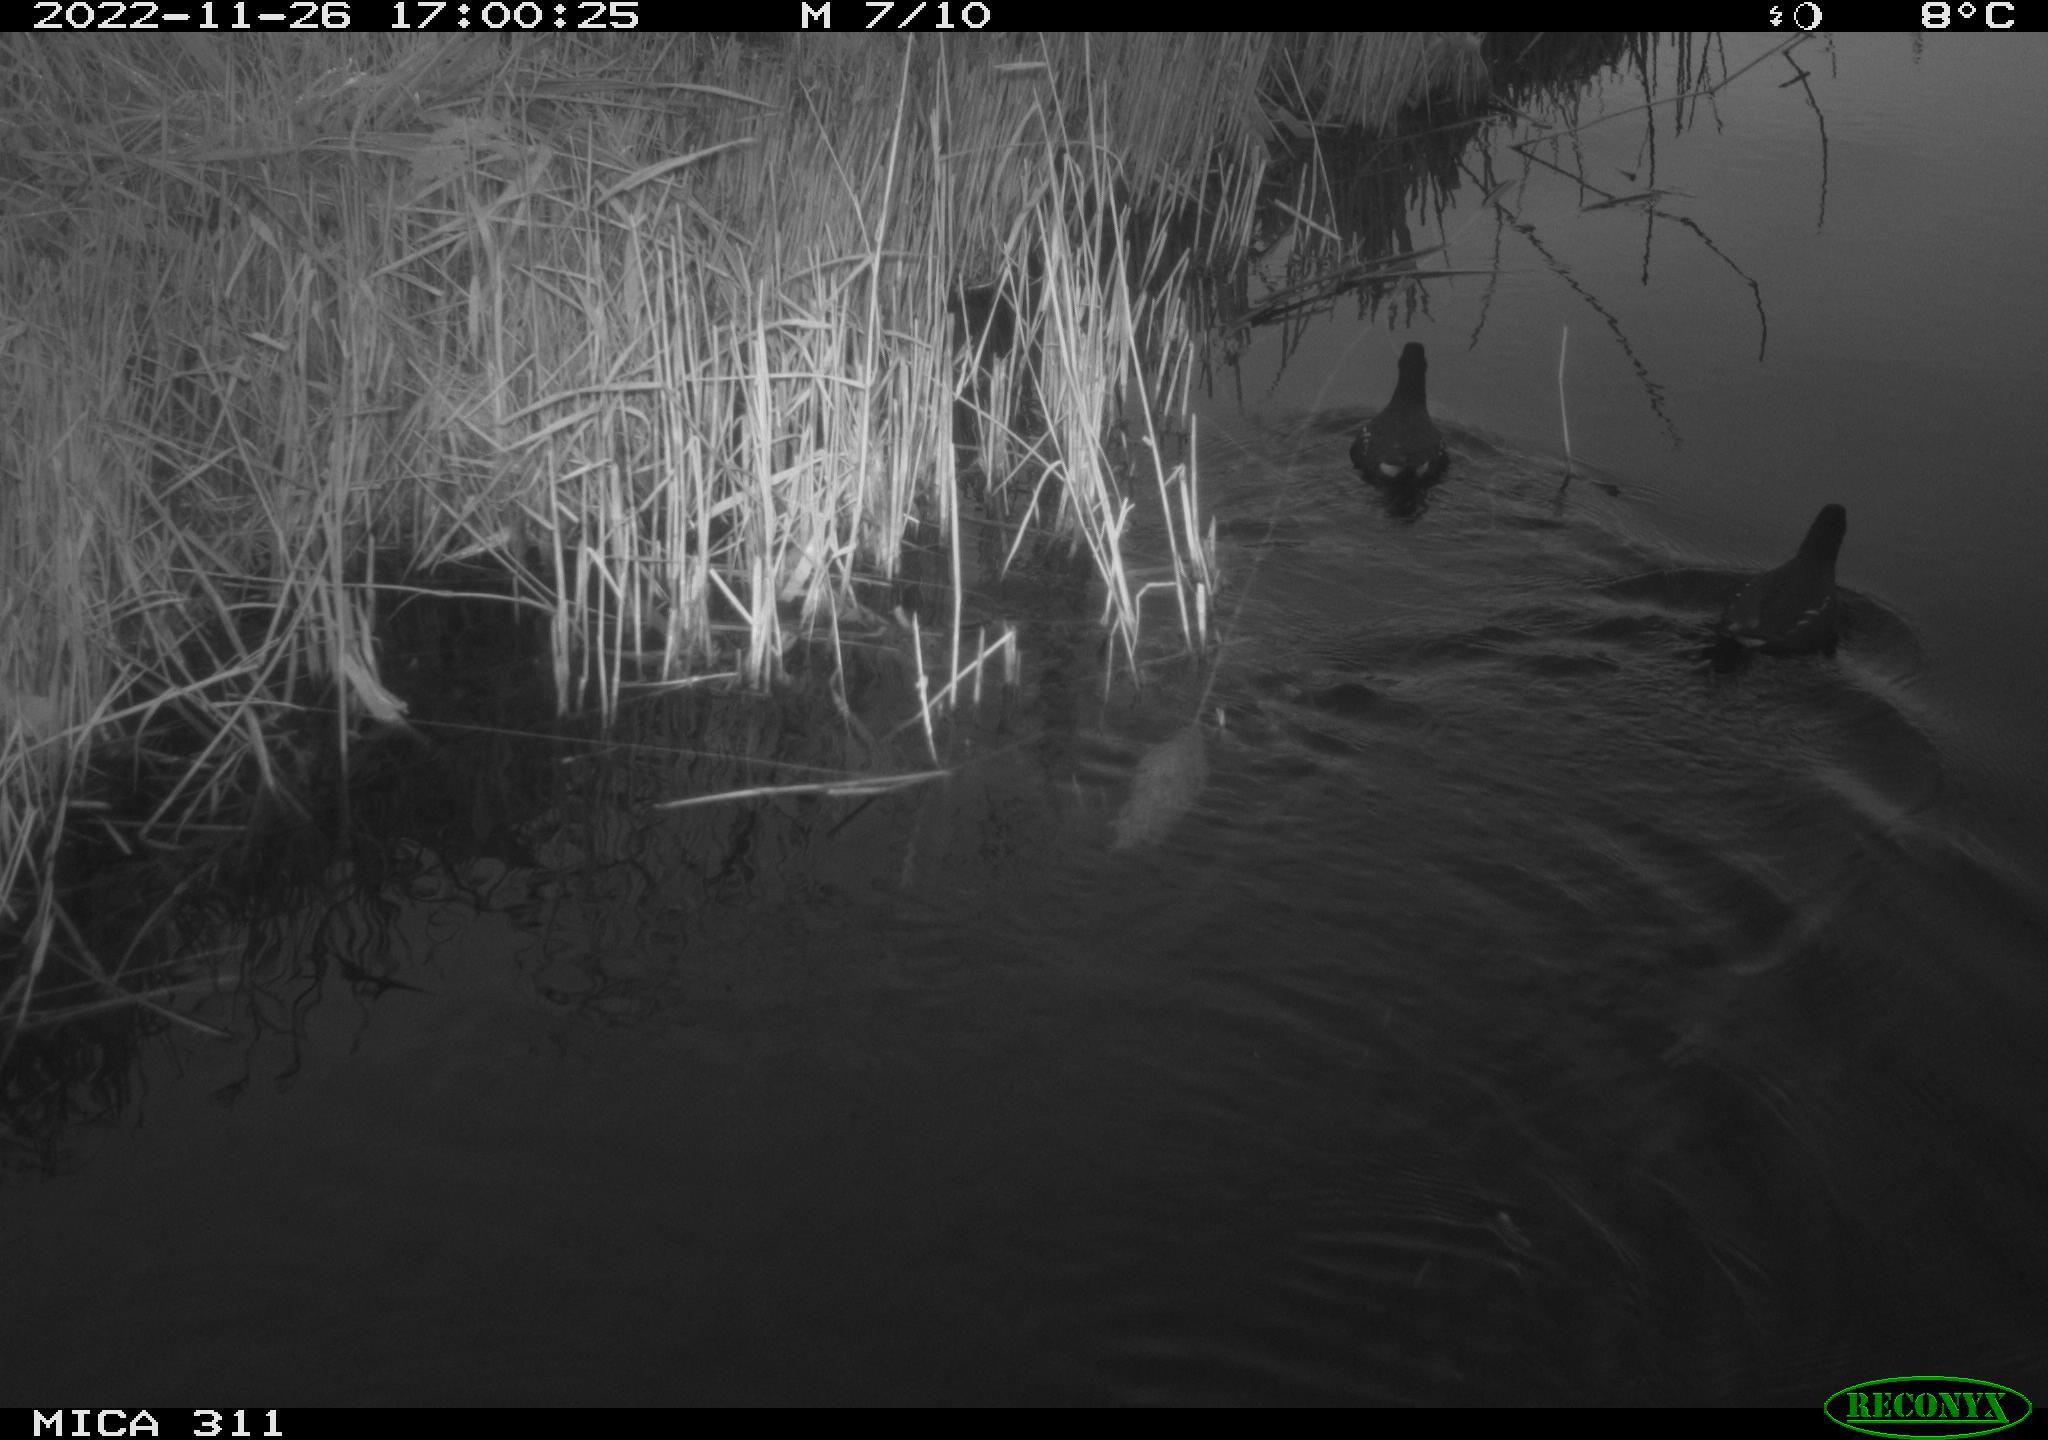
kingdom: Animalia
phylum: Chordata
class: Aves
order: Gruiformes
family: Rallidae
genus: Gallinula
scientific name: Gallinula chloropus
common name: Common moorhen
